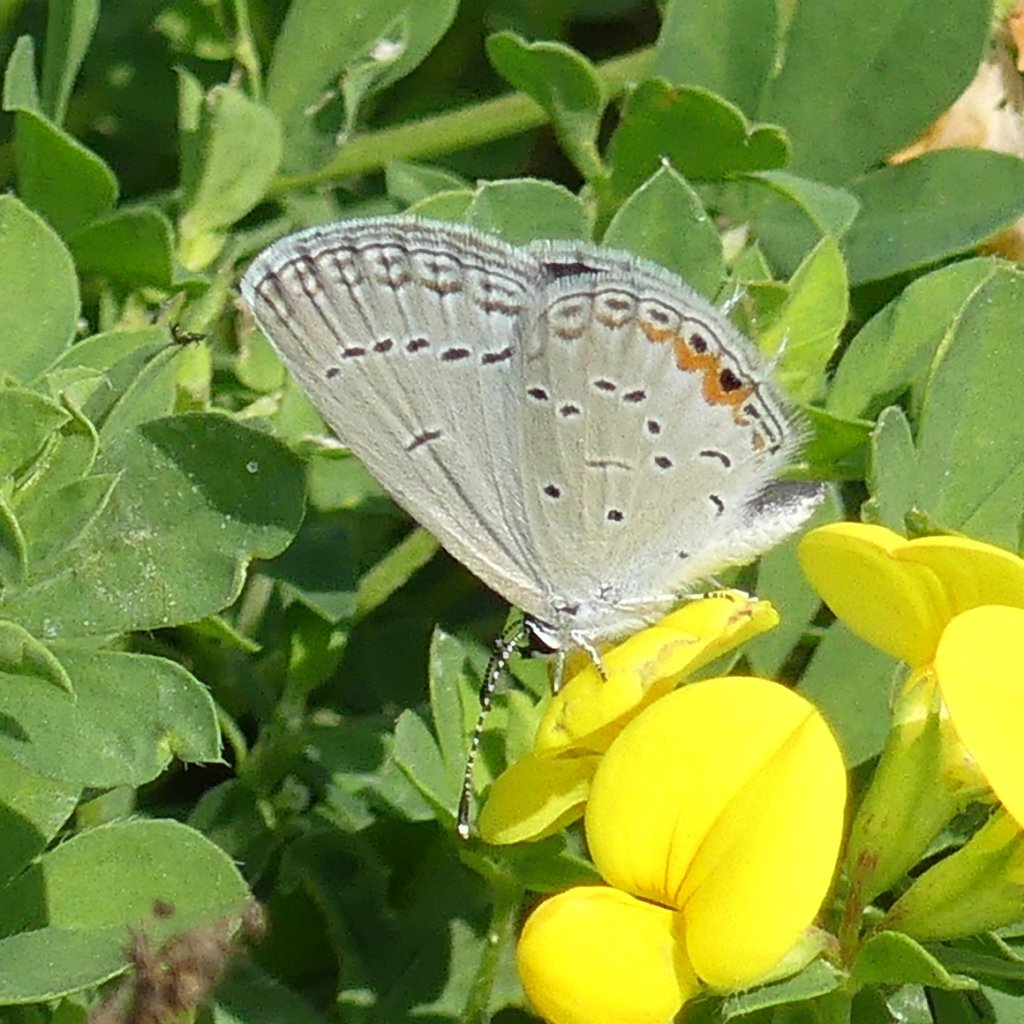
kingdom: Animalia
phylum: Arthropoda
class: Insecta
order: Lepidoptera
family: Lycaenidae
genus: Elkalyce
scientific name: Elkalyce comyntas
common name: Eastern Tailed-Blue
